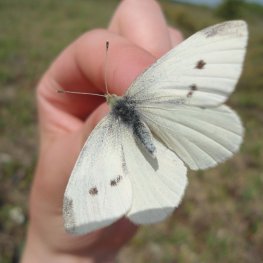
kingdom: Animalia
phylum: Arthropoda
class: Insecta
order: Lepidoptera
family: Pieridae
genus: Pieris
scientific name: Pieris rapae
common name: Cabbage White
